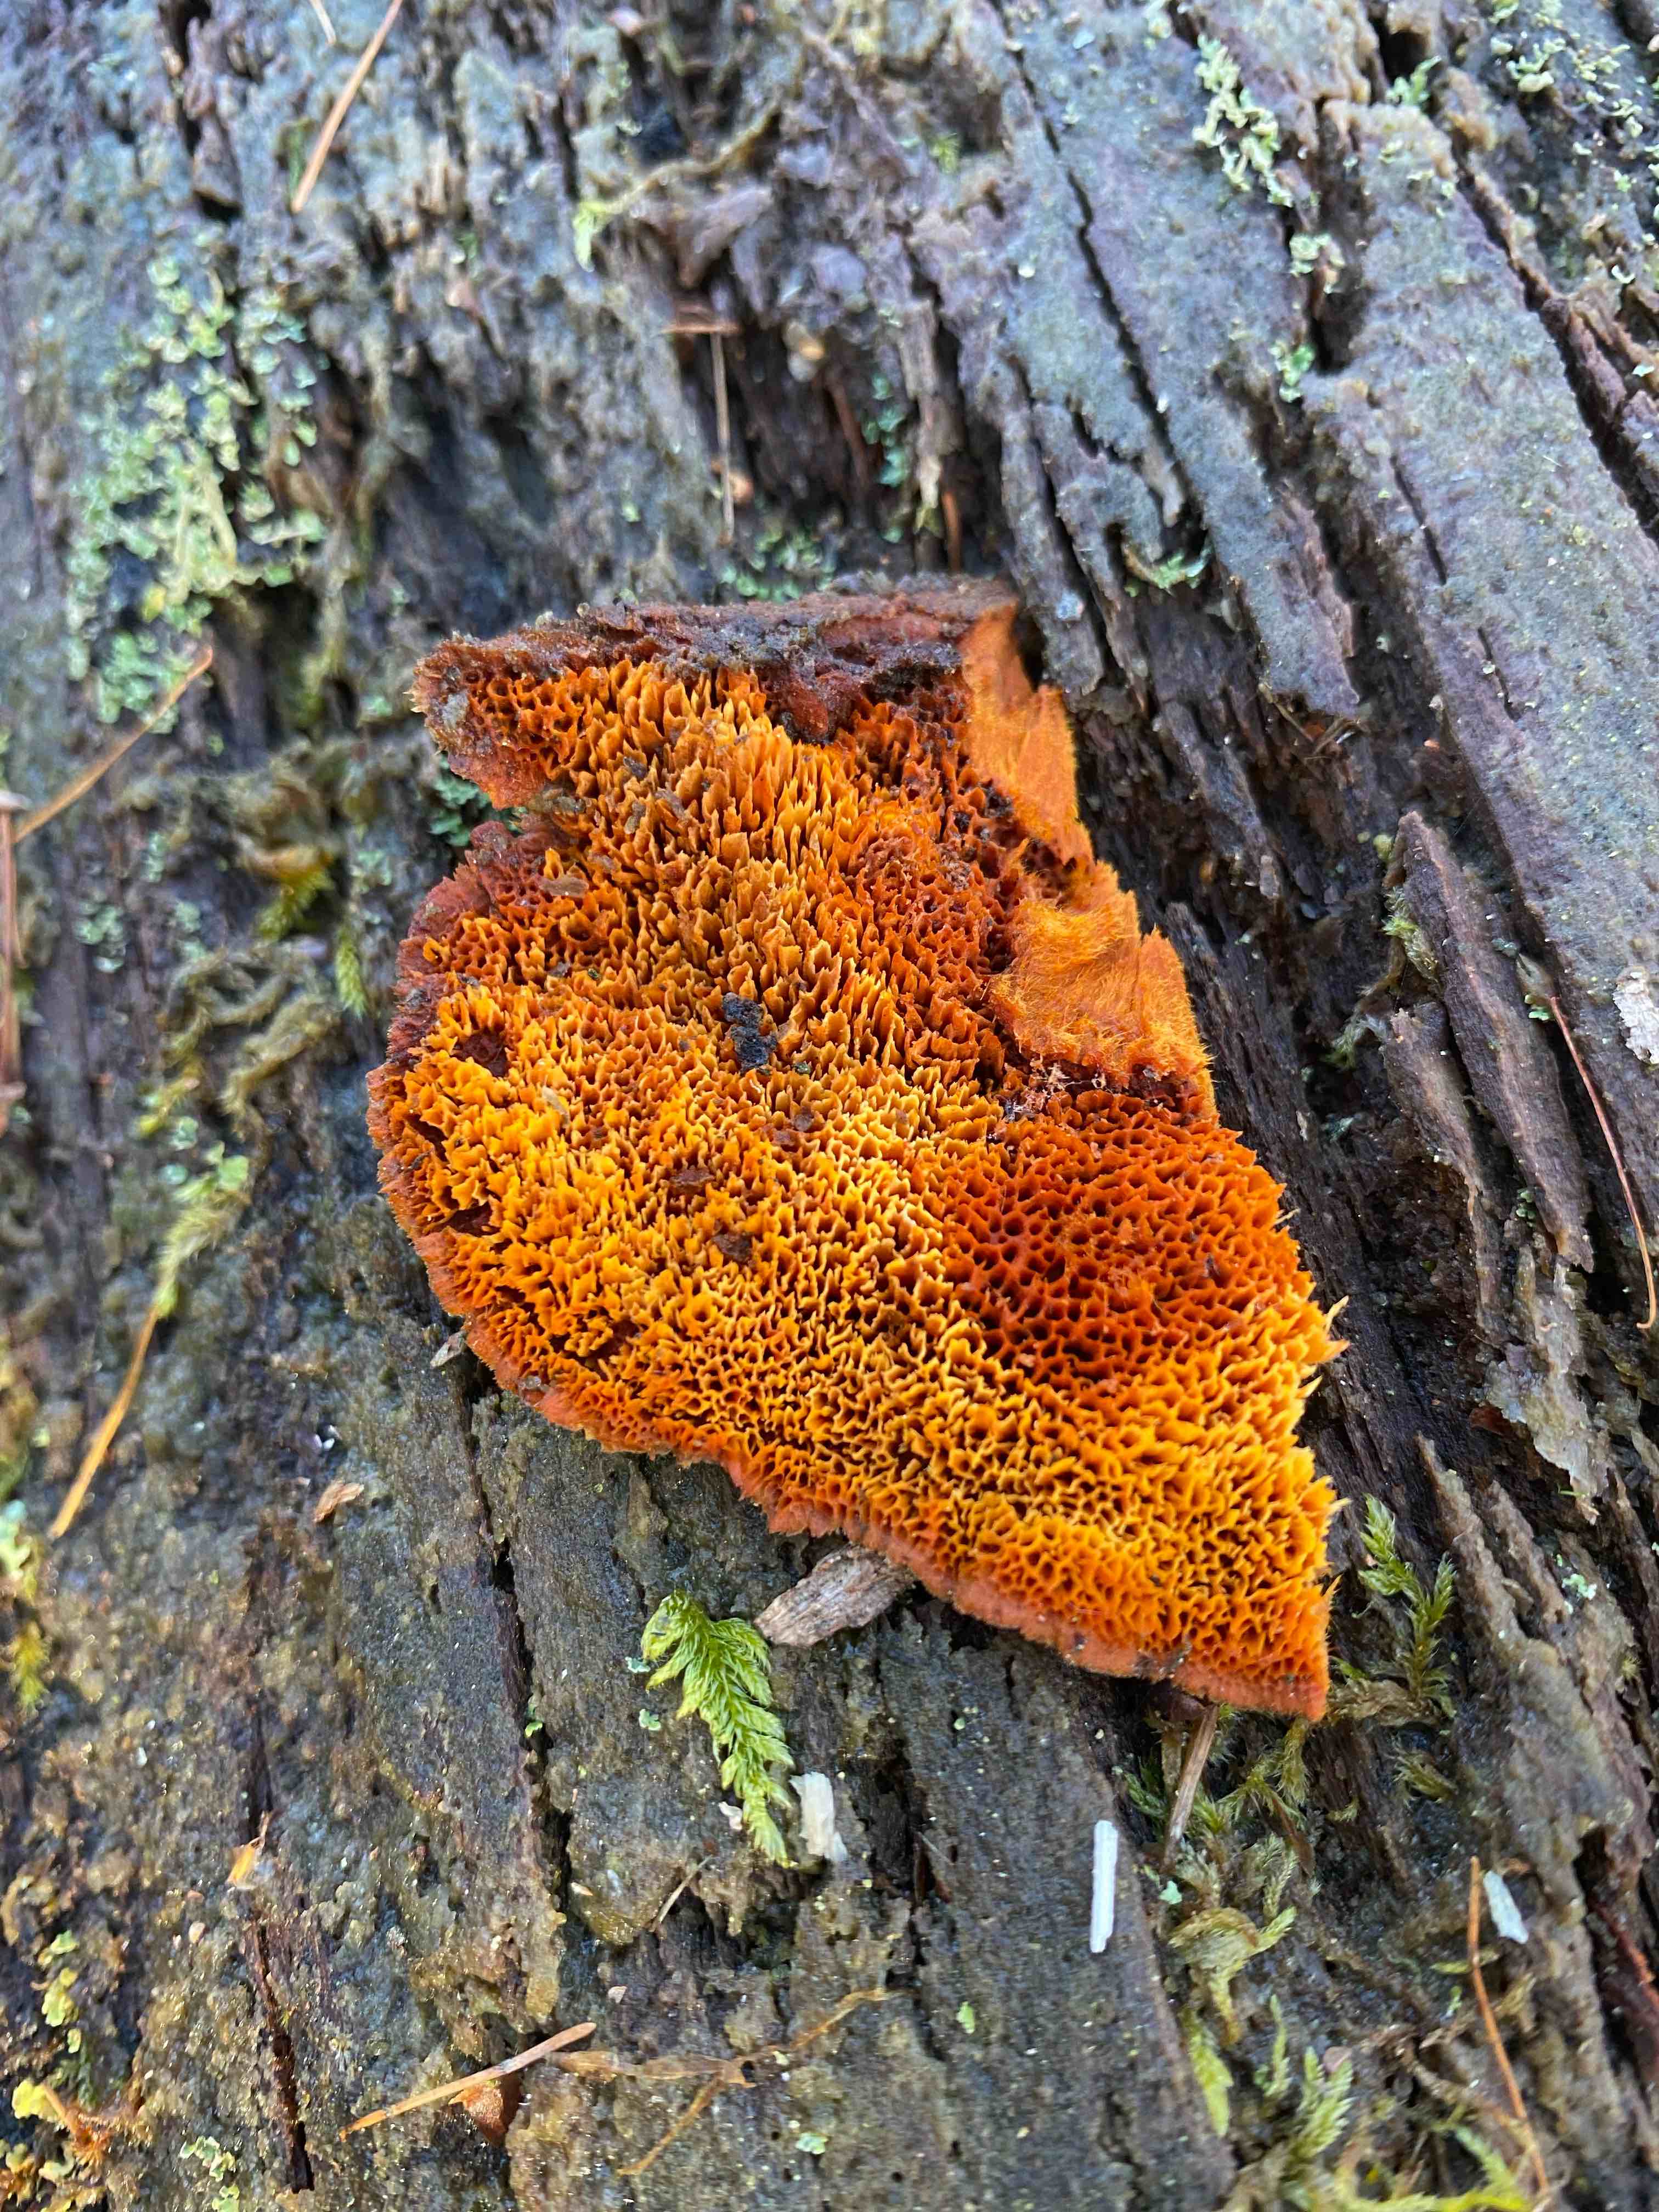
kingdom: Fungi
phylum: Basidiomycota
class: Agaricomycetes
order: Polyporales
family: Pycnoporellaceae
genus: Pycnoporellus
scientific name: Pycnoporellus fulgens
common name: flammeporesvamp
